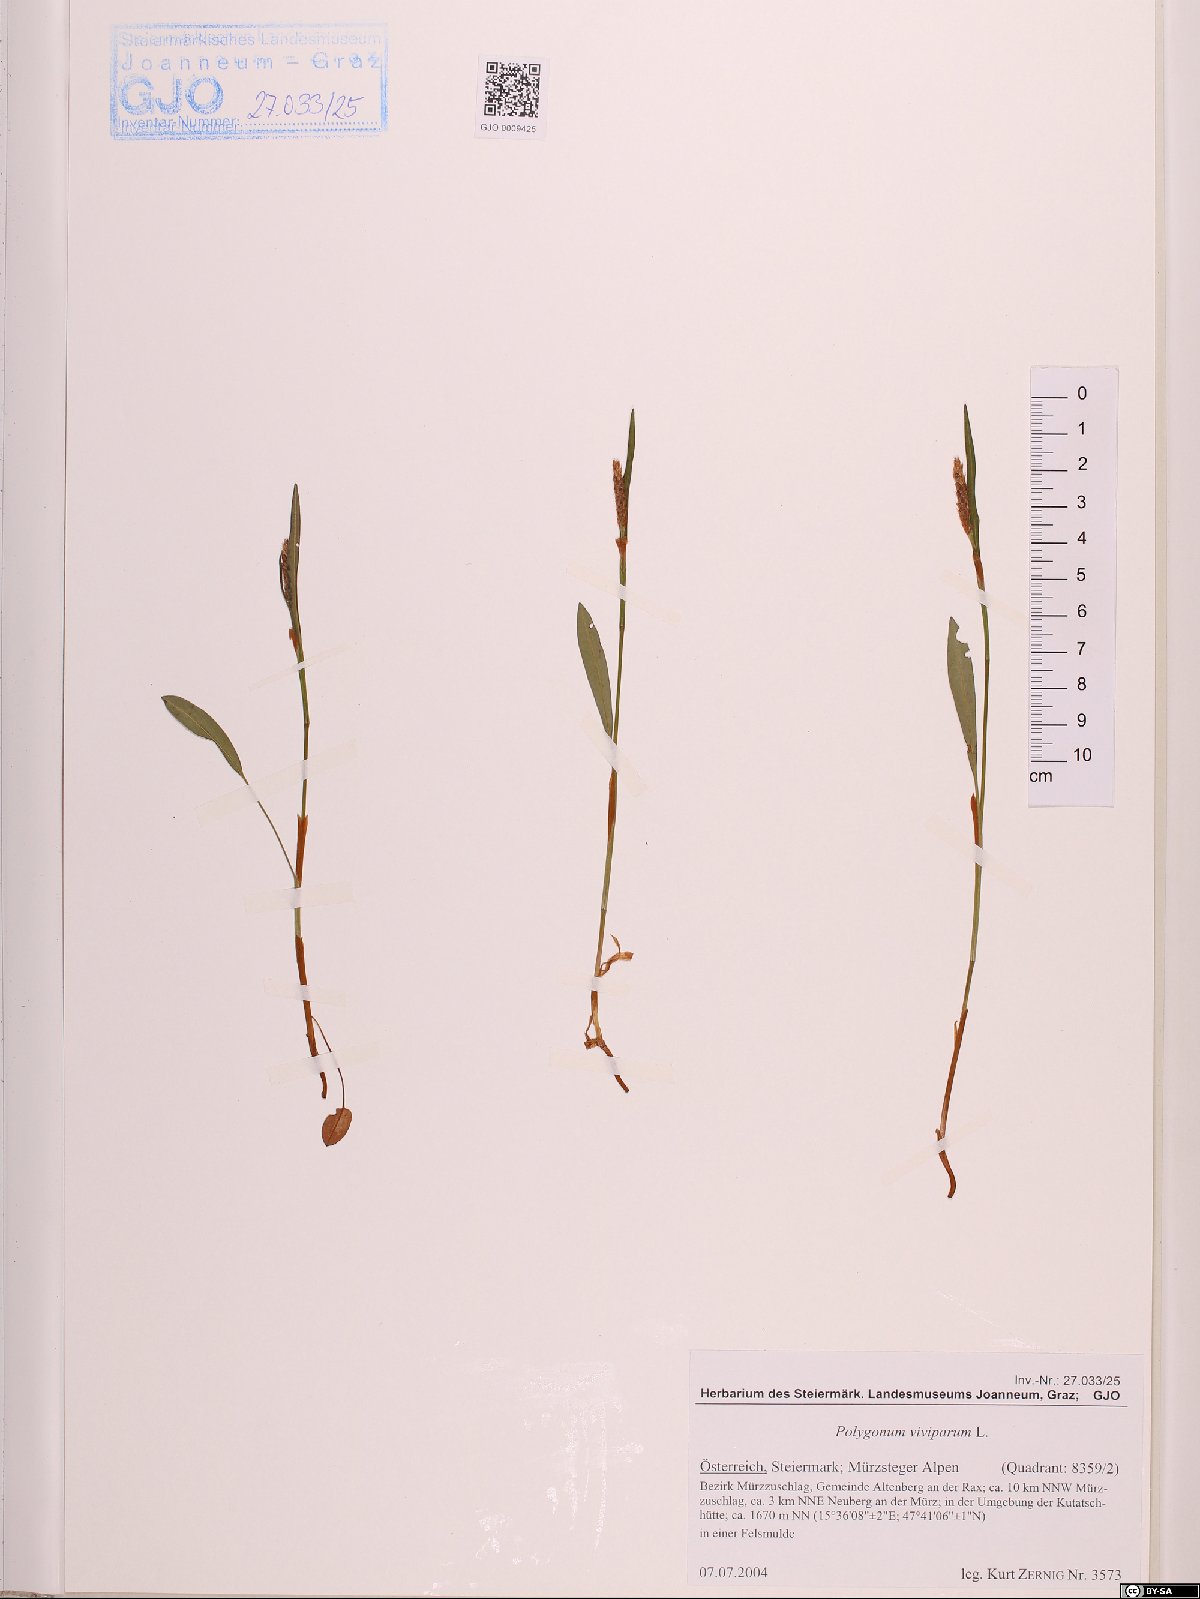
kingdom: Plantae
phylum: Tracheophyta
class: Magnoliopsida
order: Caryophyllales
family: Polygonaceae
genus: Bistorta
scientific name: Bistorta vivipara
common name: Alpine bistort
